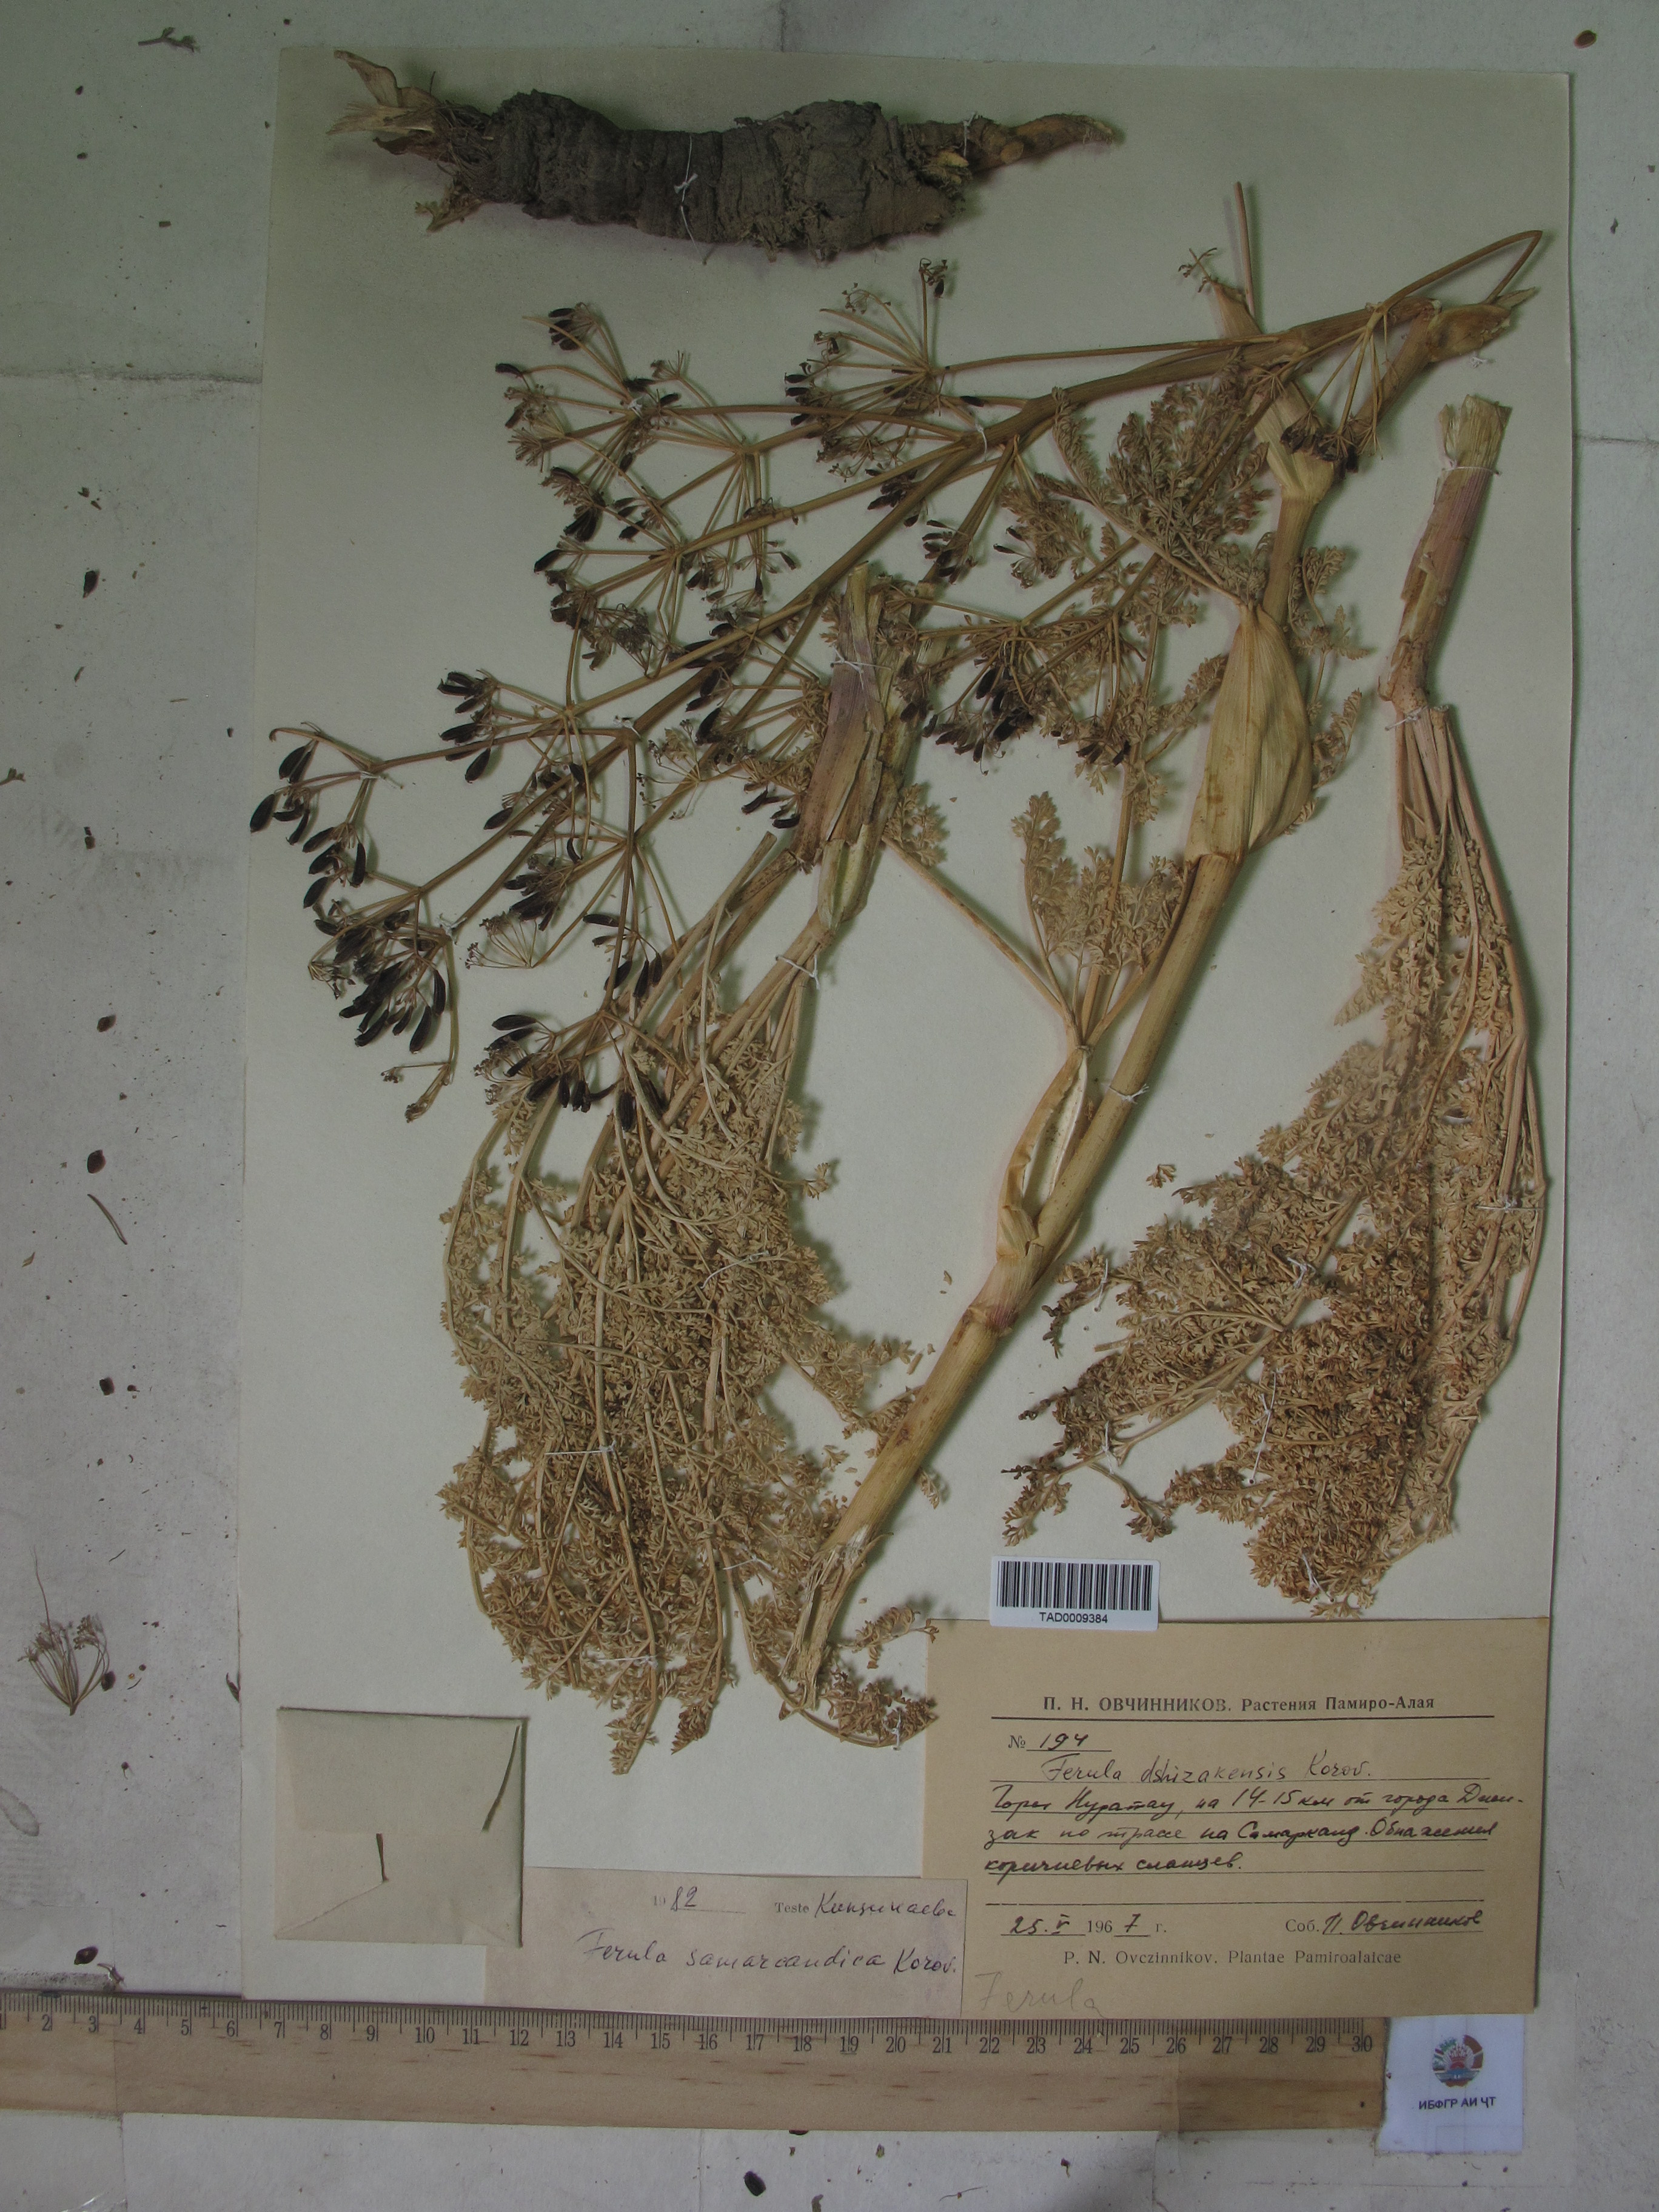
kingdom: Plantae
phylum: Tracheophyta
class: Magnoliopsida
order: Apiales
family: Apiaceae
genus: Ferula
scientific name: Ferula samarkandica
